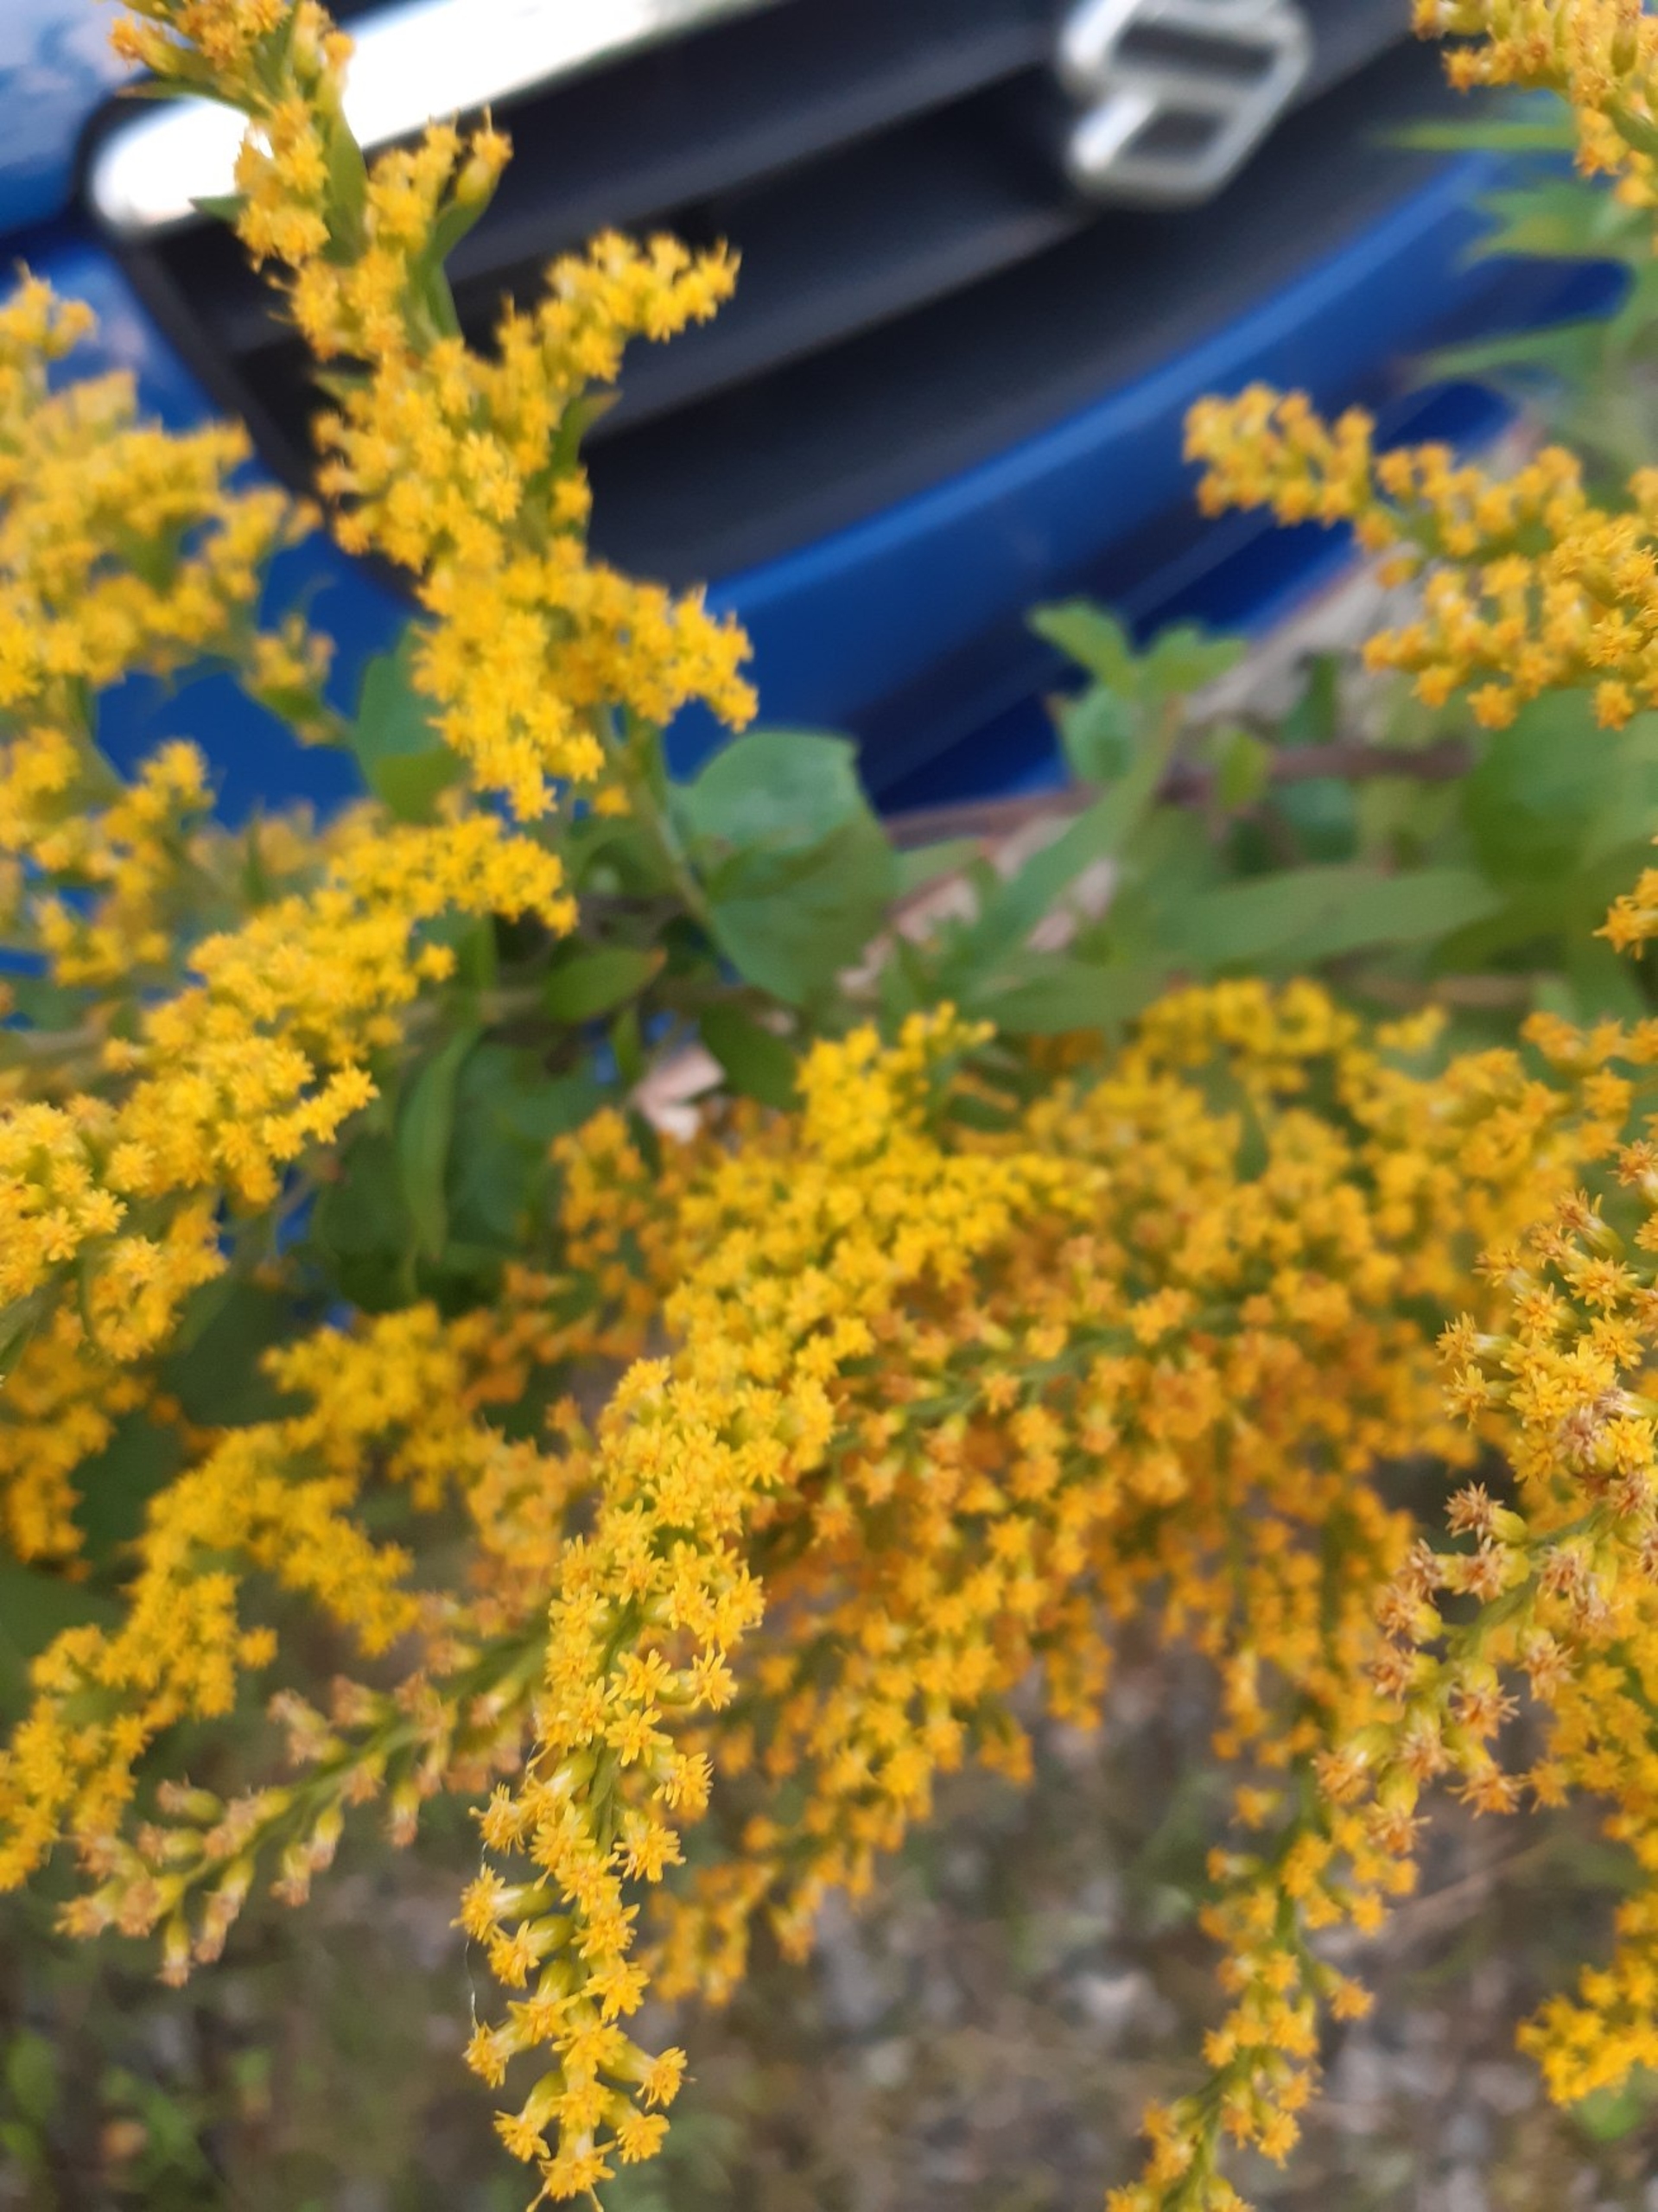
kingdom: Plantae
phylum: Tracheophyta
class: Magnoliopsida
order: Asterales
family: Asteraceae
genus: Solidago
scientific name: Solidago canadensis
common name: Kanadisk gyldenris
